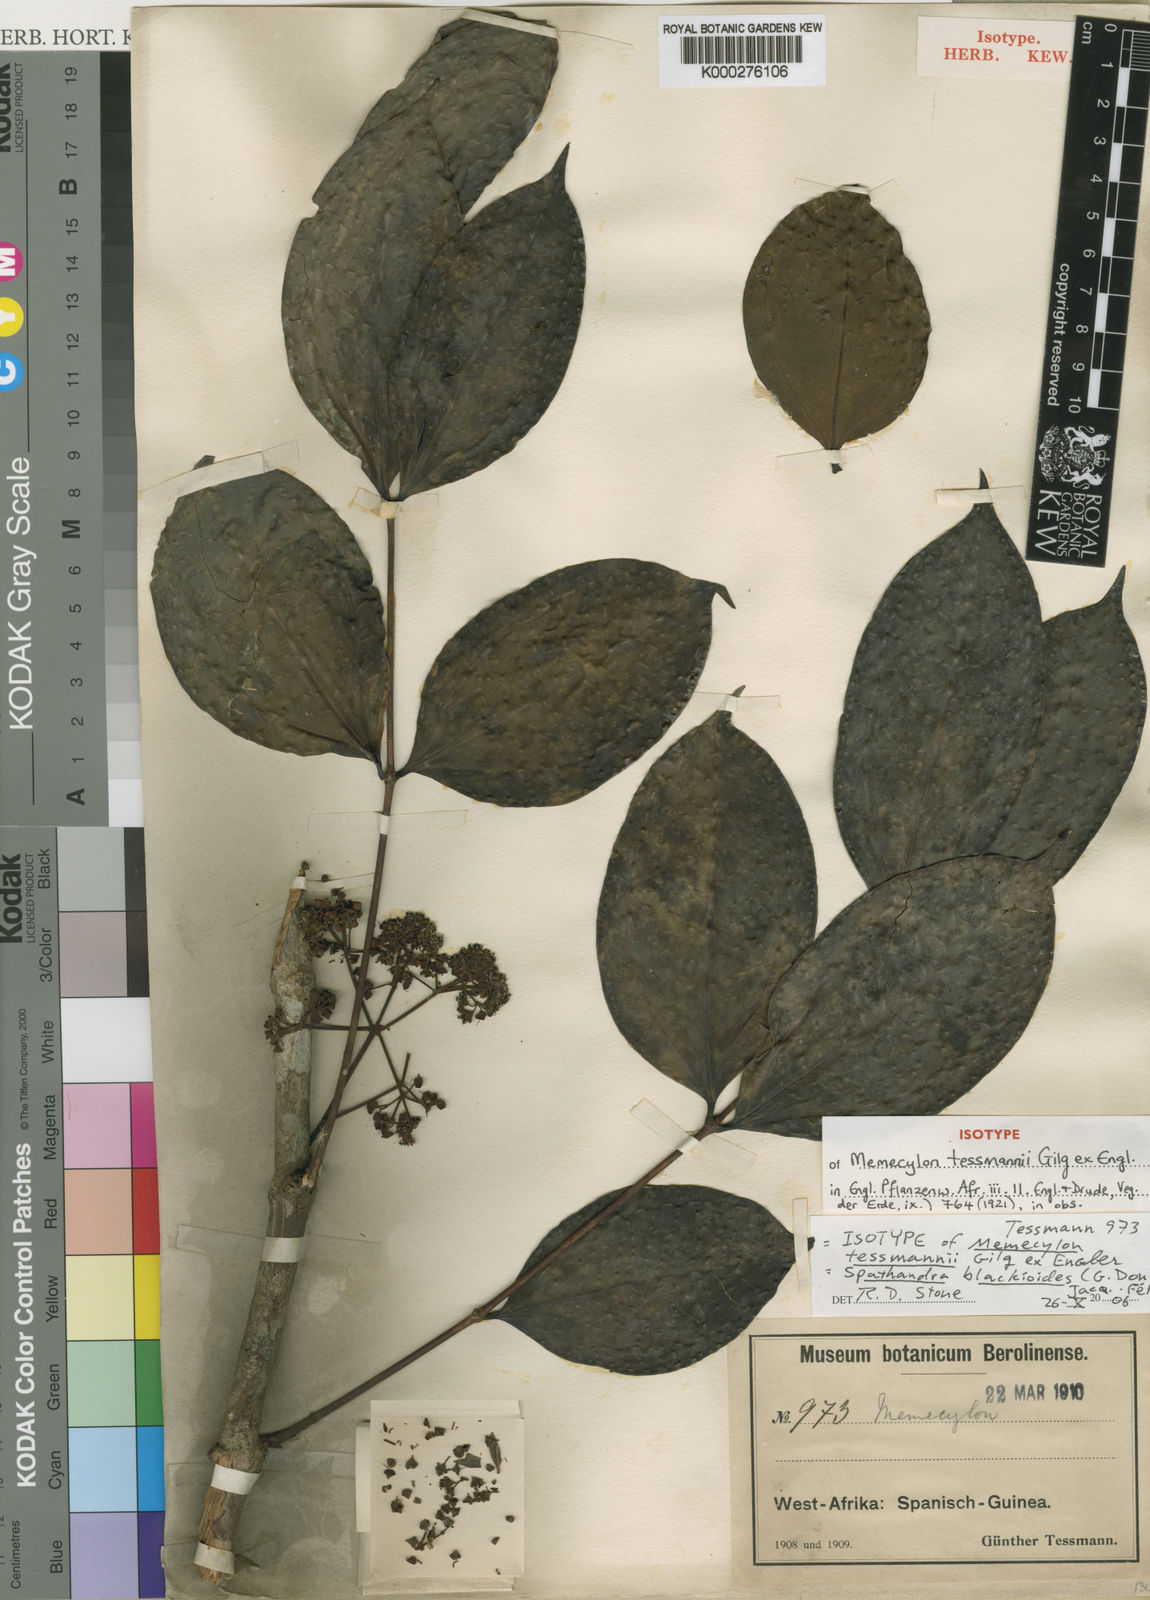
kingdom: Plantae
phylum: Tracheophyta
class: Magnoliopsida
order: Myrtales
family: Melastomataceae
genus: Spathandra
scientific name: Spathandra
